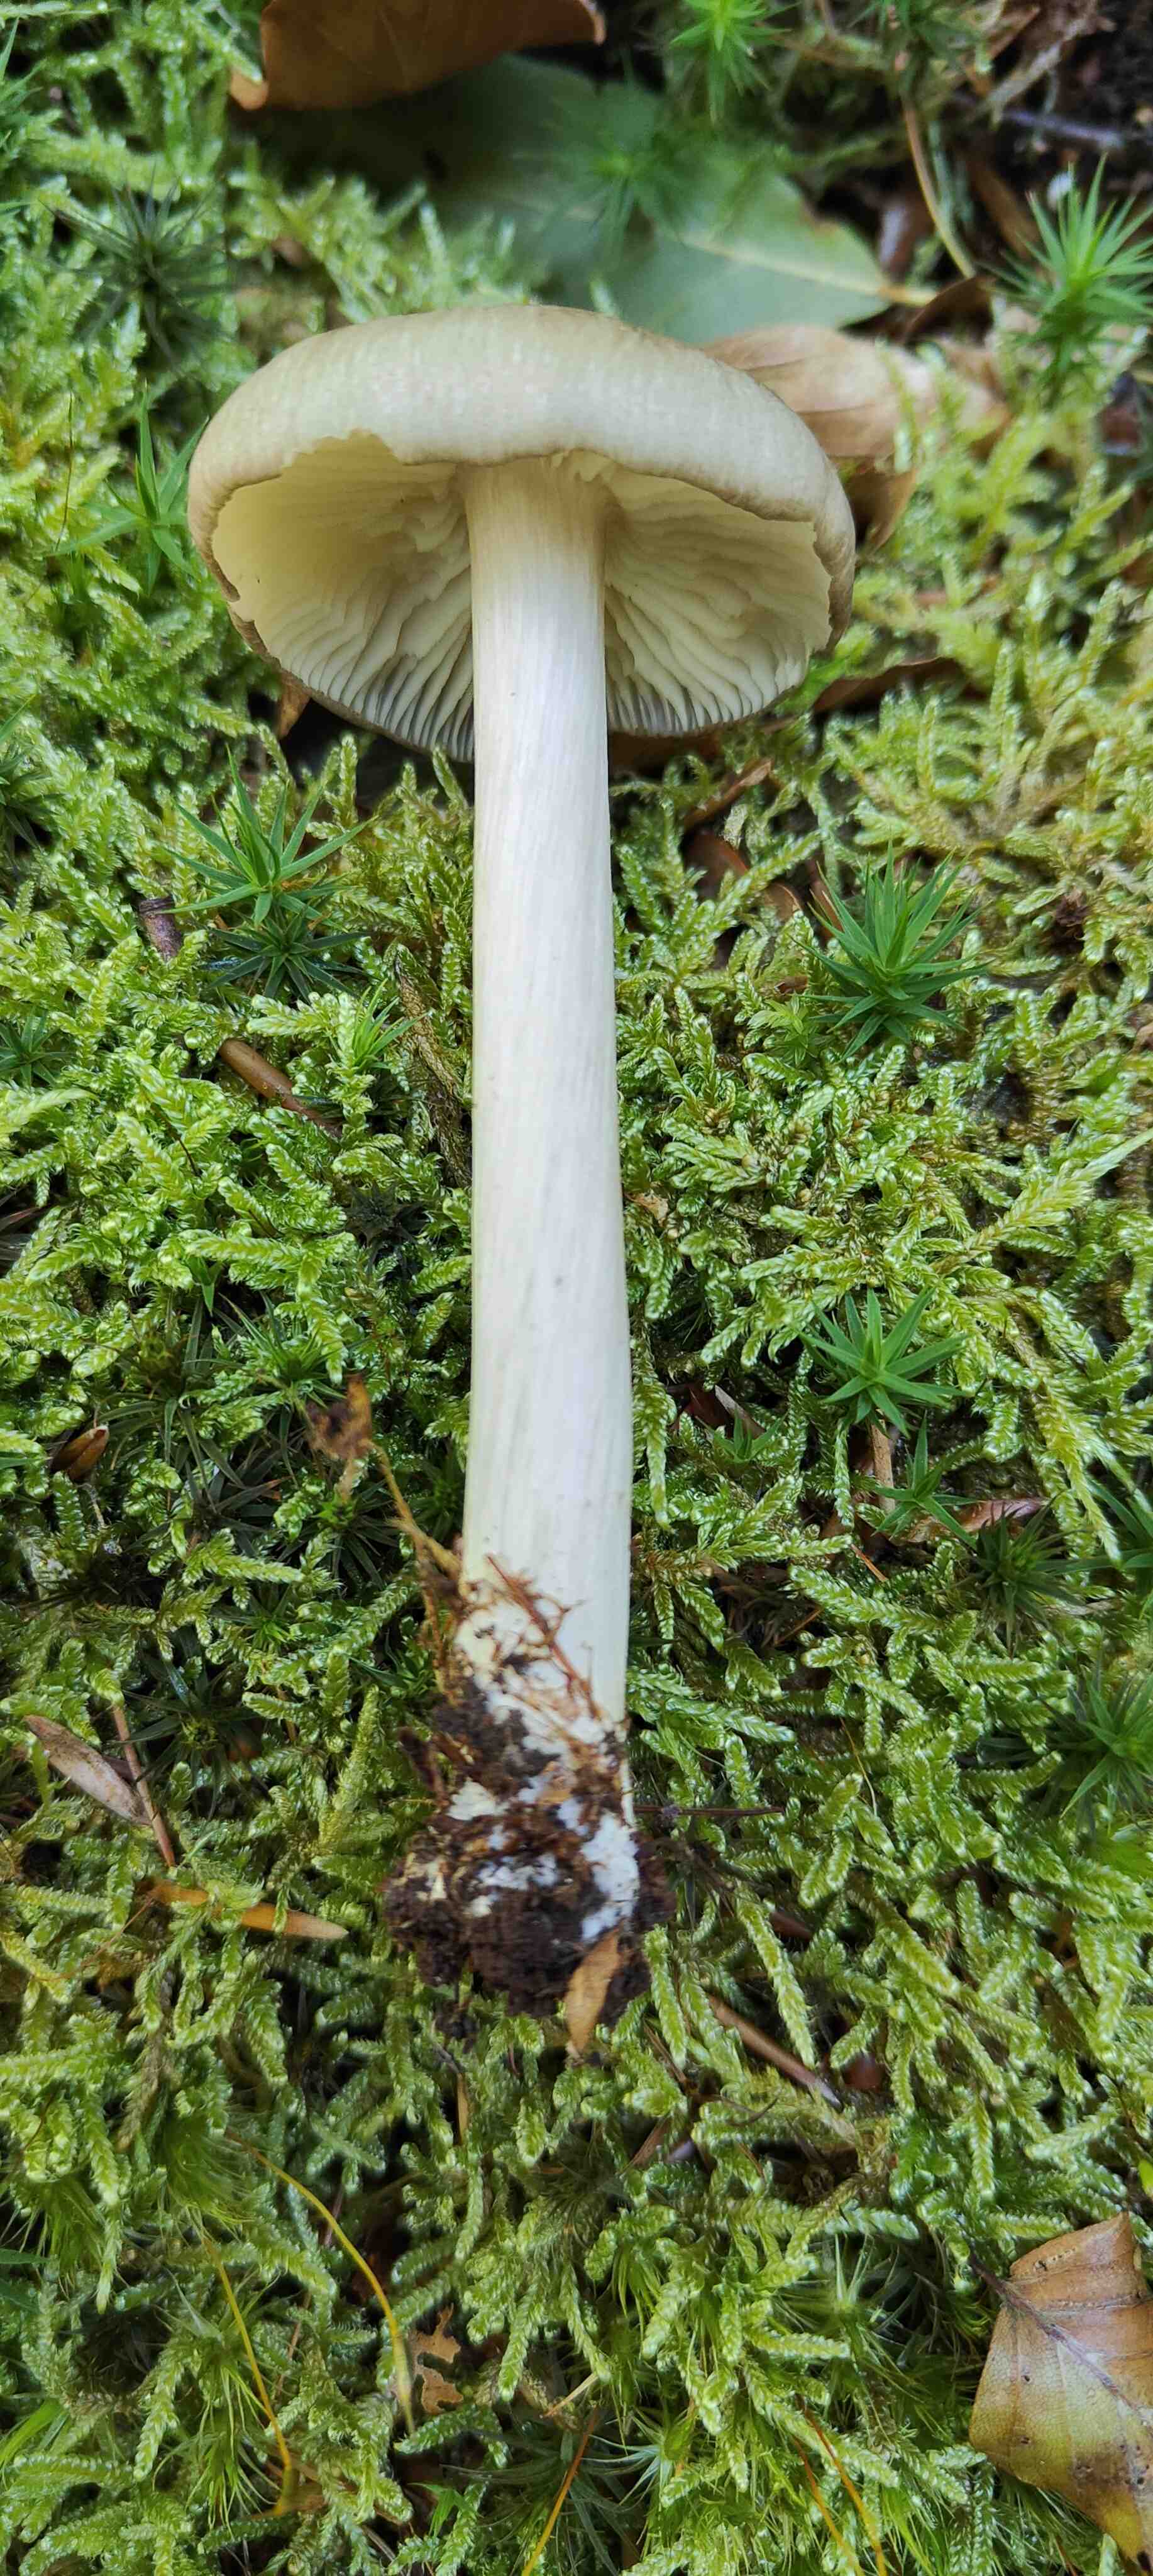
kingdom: Fungi
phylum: Basidiomycota
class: Agaricomycetes
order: Agaricales
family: Tricholomataceae
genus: Megacollybia
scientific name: Megacollybia platyphylla
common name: bredbladet væbnerhat
